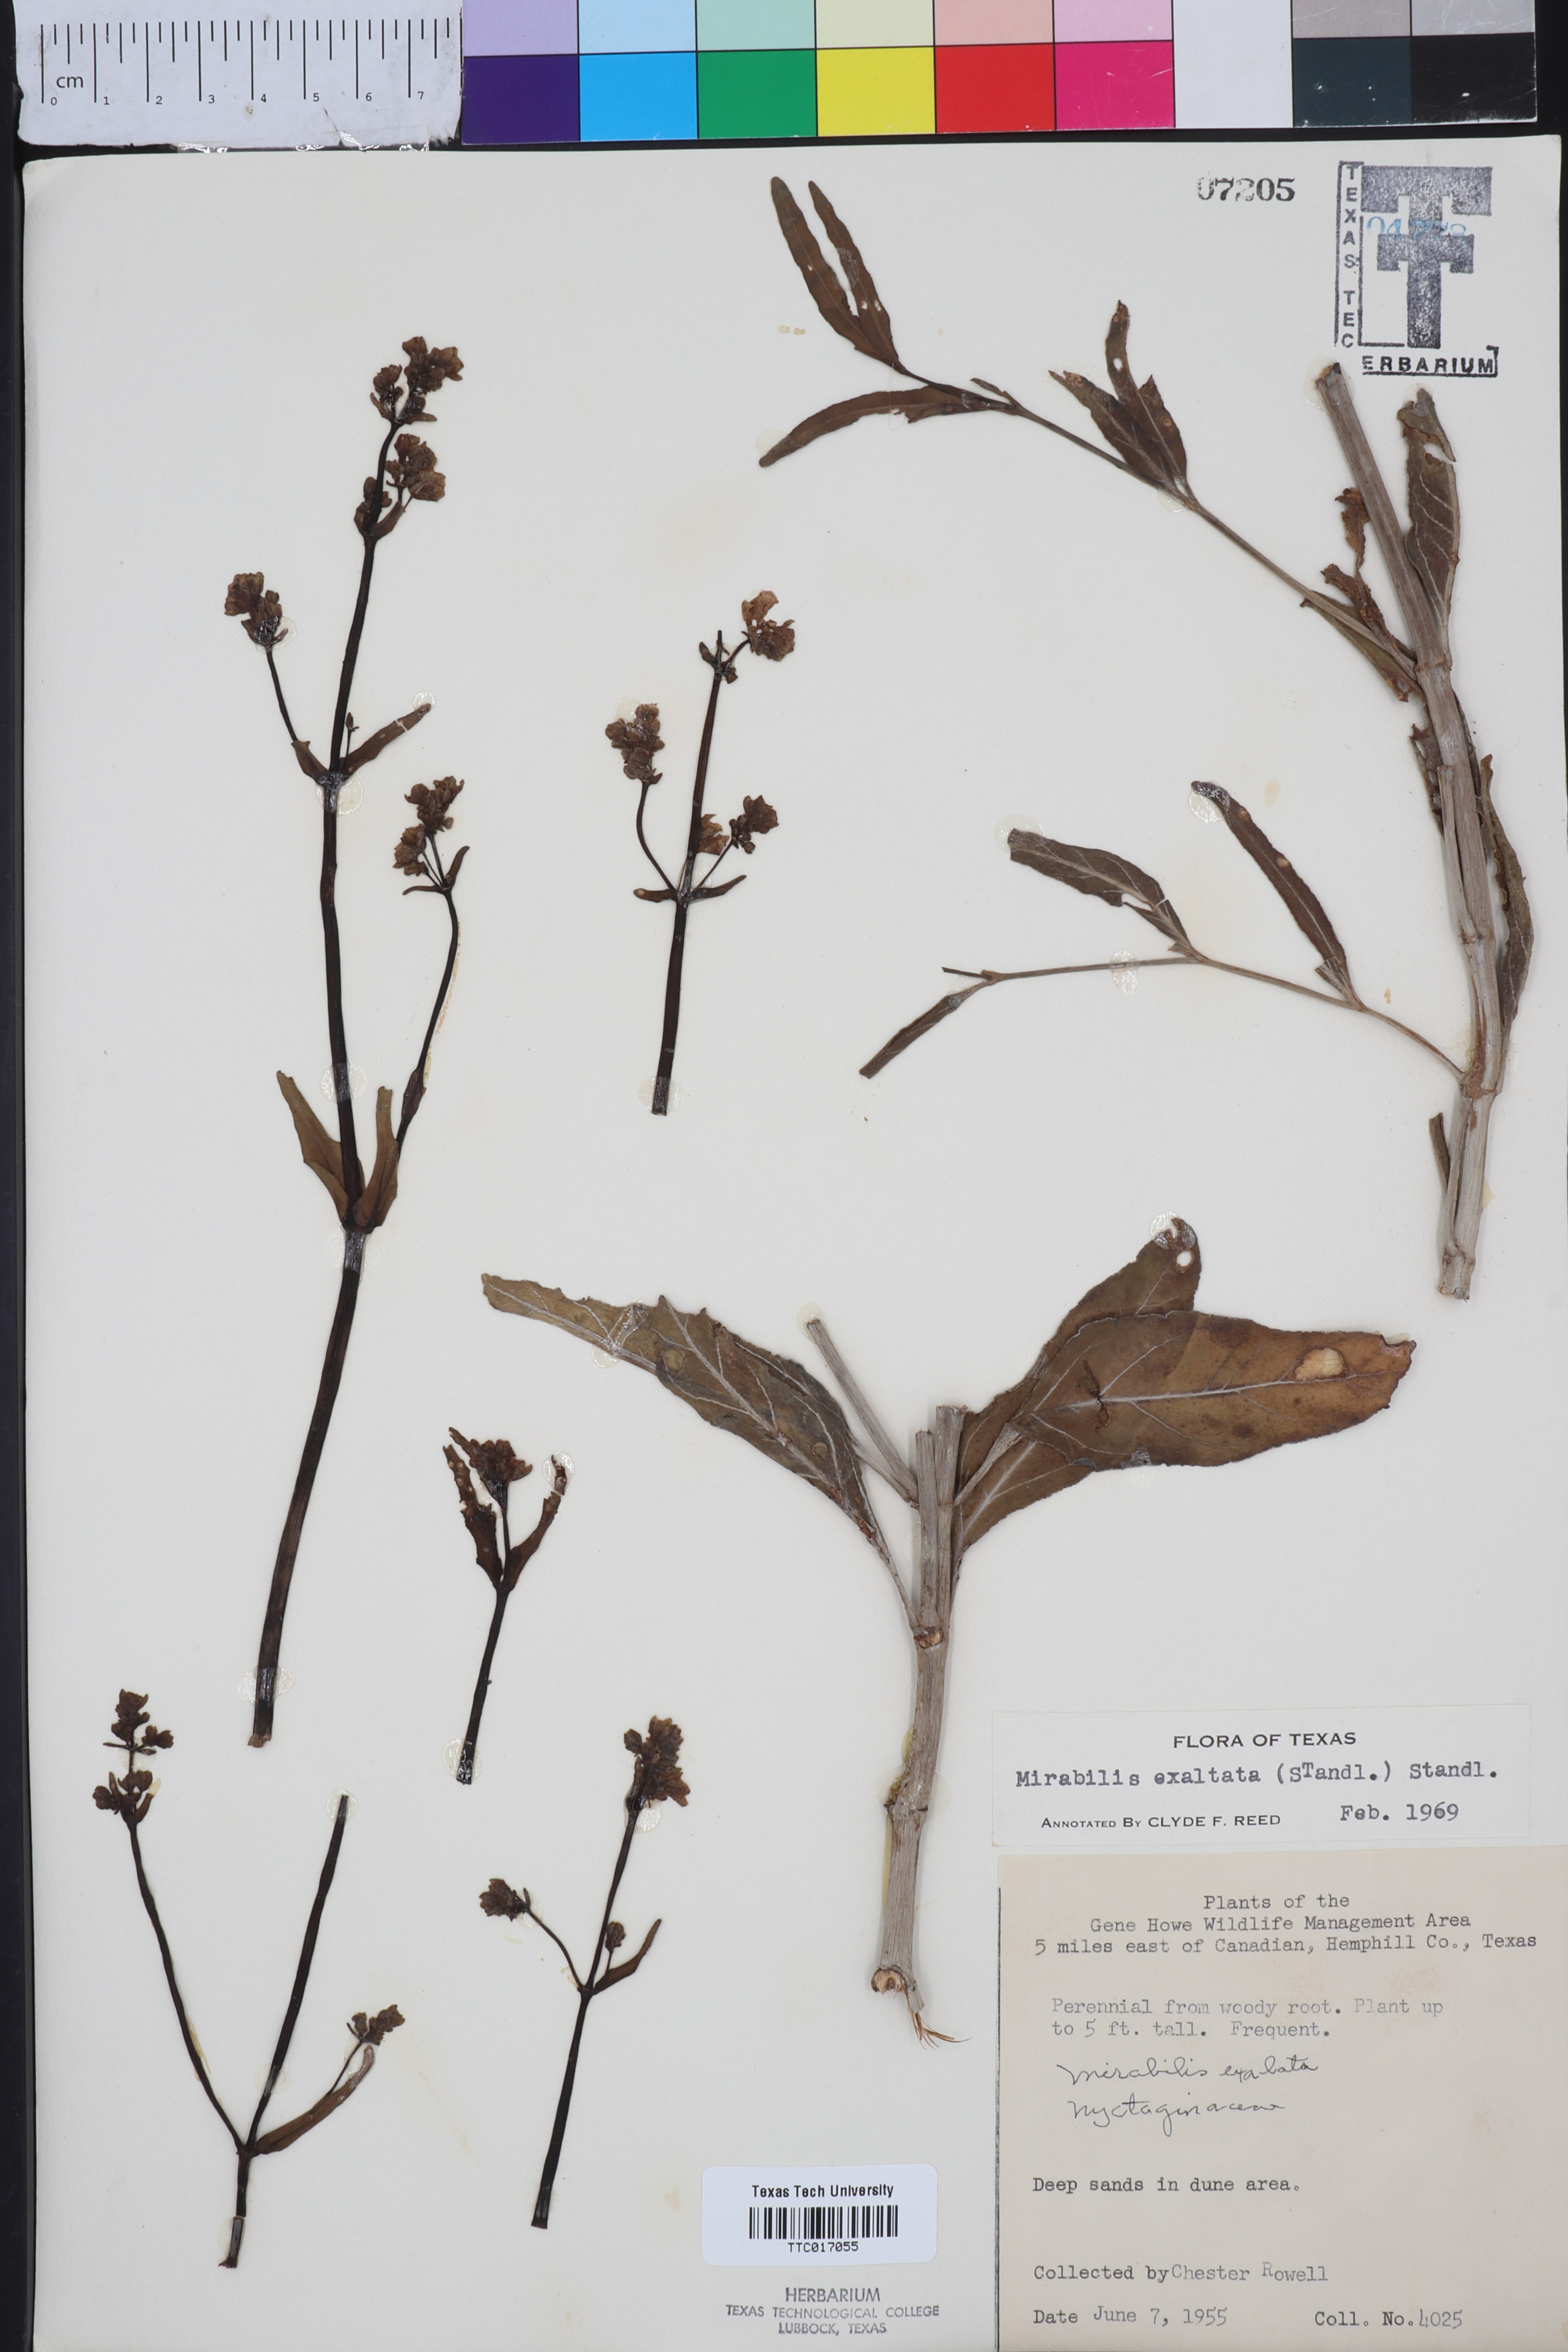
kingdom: Plantae
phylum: Tracheophyta
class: Magnoliopsida
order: Caryophyllales
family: Nyctaginaceae
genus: Mirabilis
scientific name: Mirabilis glabra
